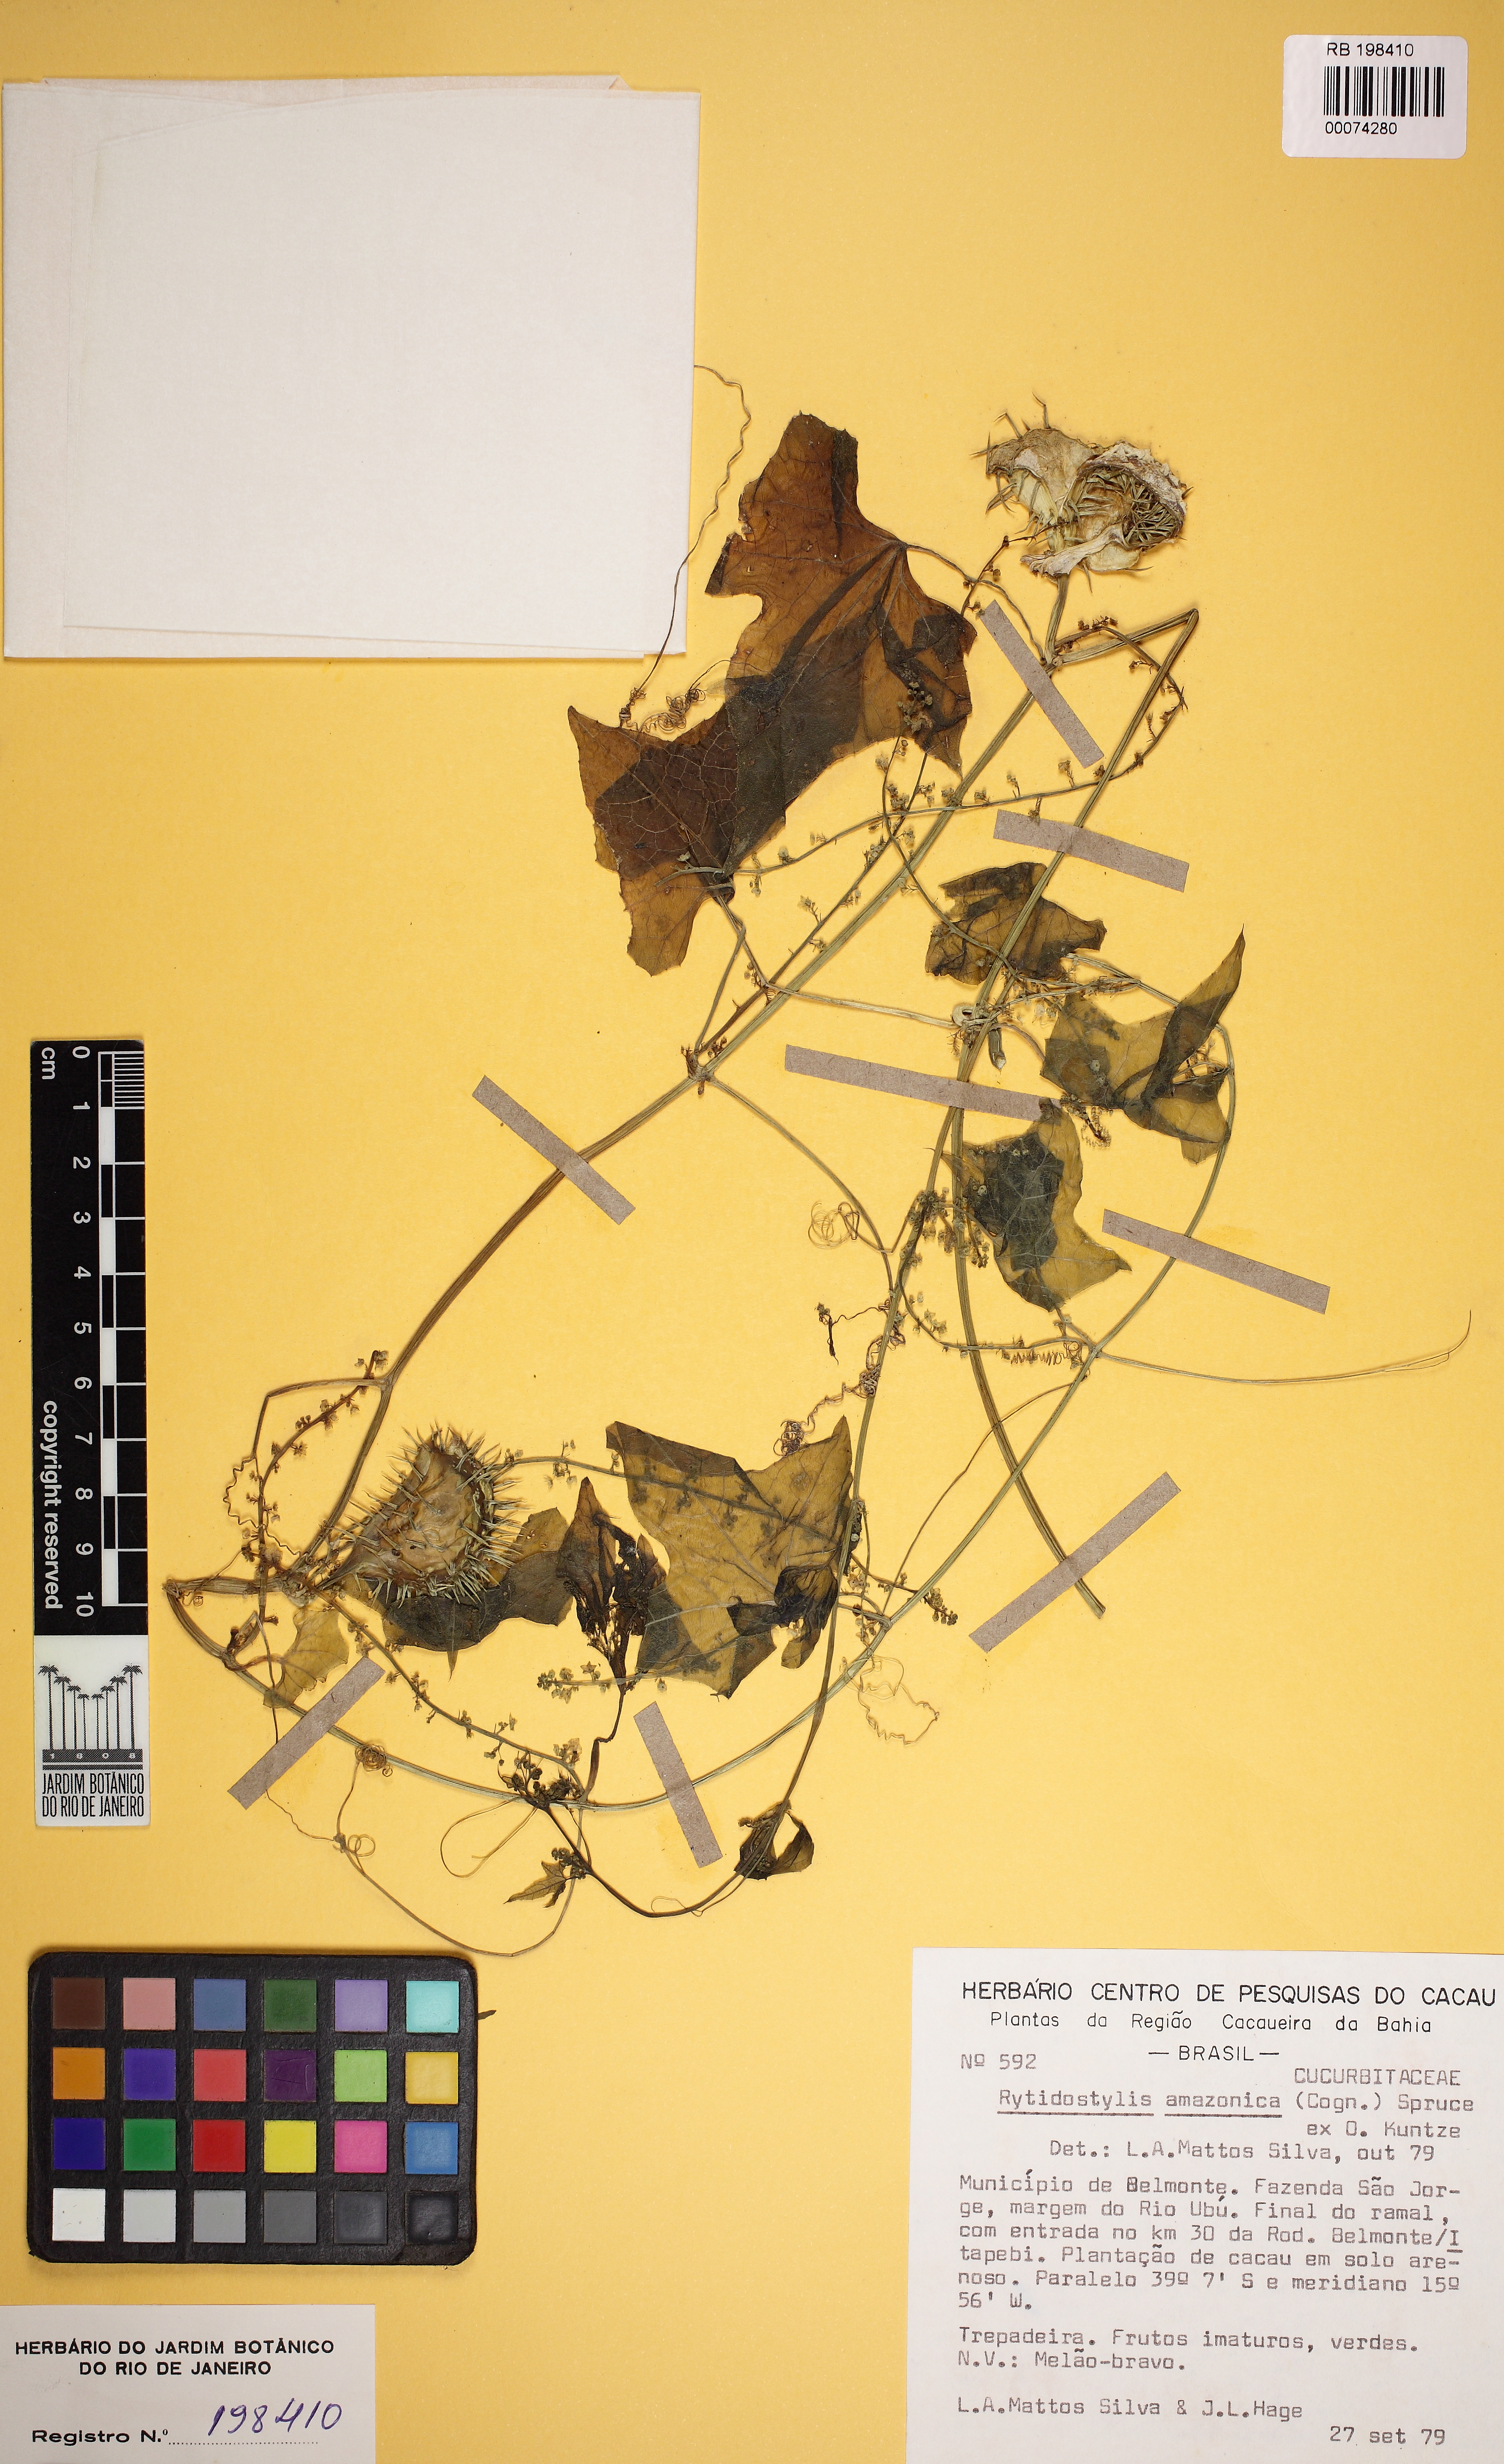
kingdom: Plantae
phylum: Tracheophyta
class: Magnoliopsida
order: Cucurbitales
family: Cucurbitaceae
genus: Cyclanthera
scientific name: Cyclanthera carthagenensis
